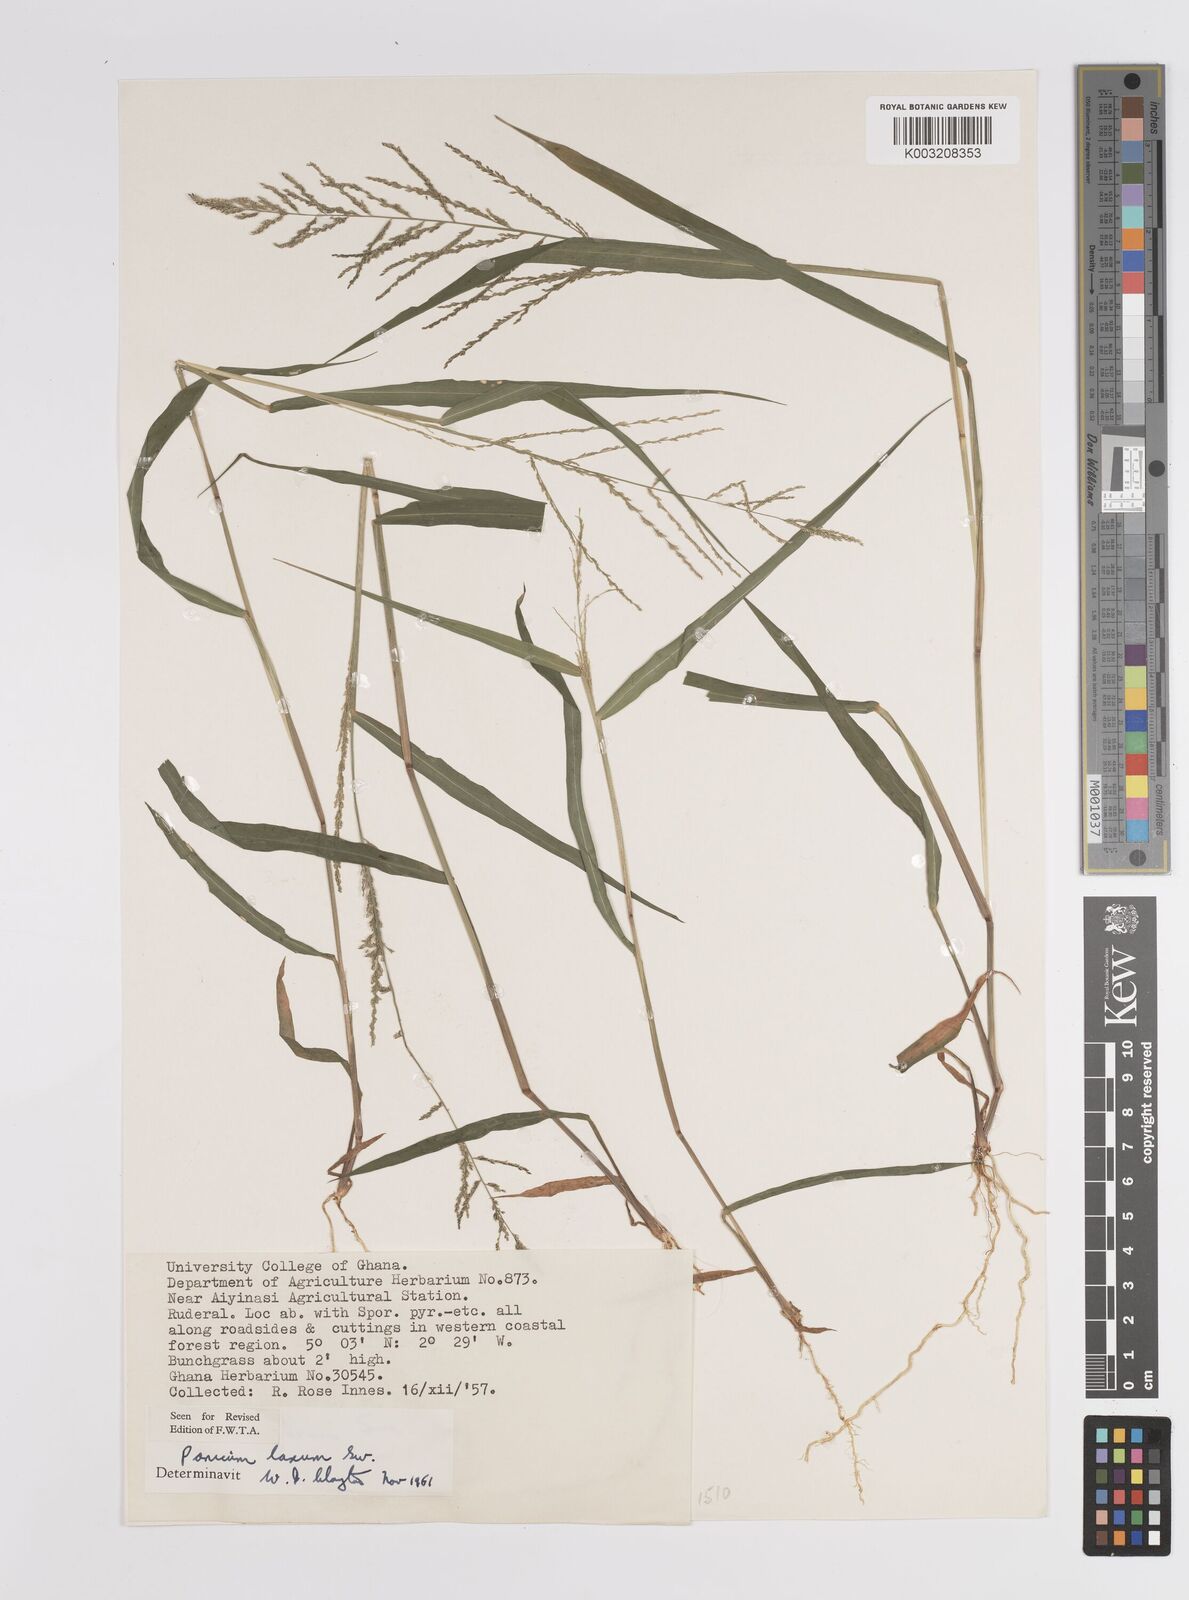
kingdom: Plantae
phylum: Tracheophyta
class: Liliopsida
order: Poales
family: Poaceae
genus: Steinchisma
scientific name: Steinchisma laxum
